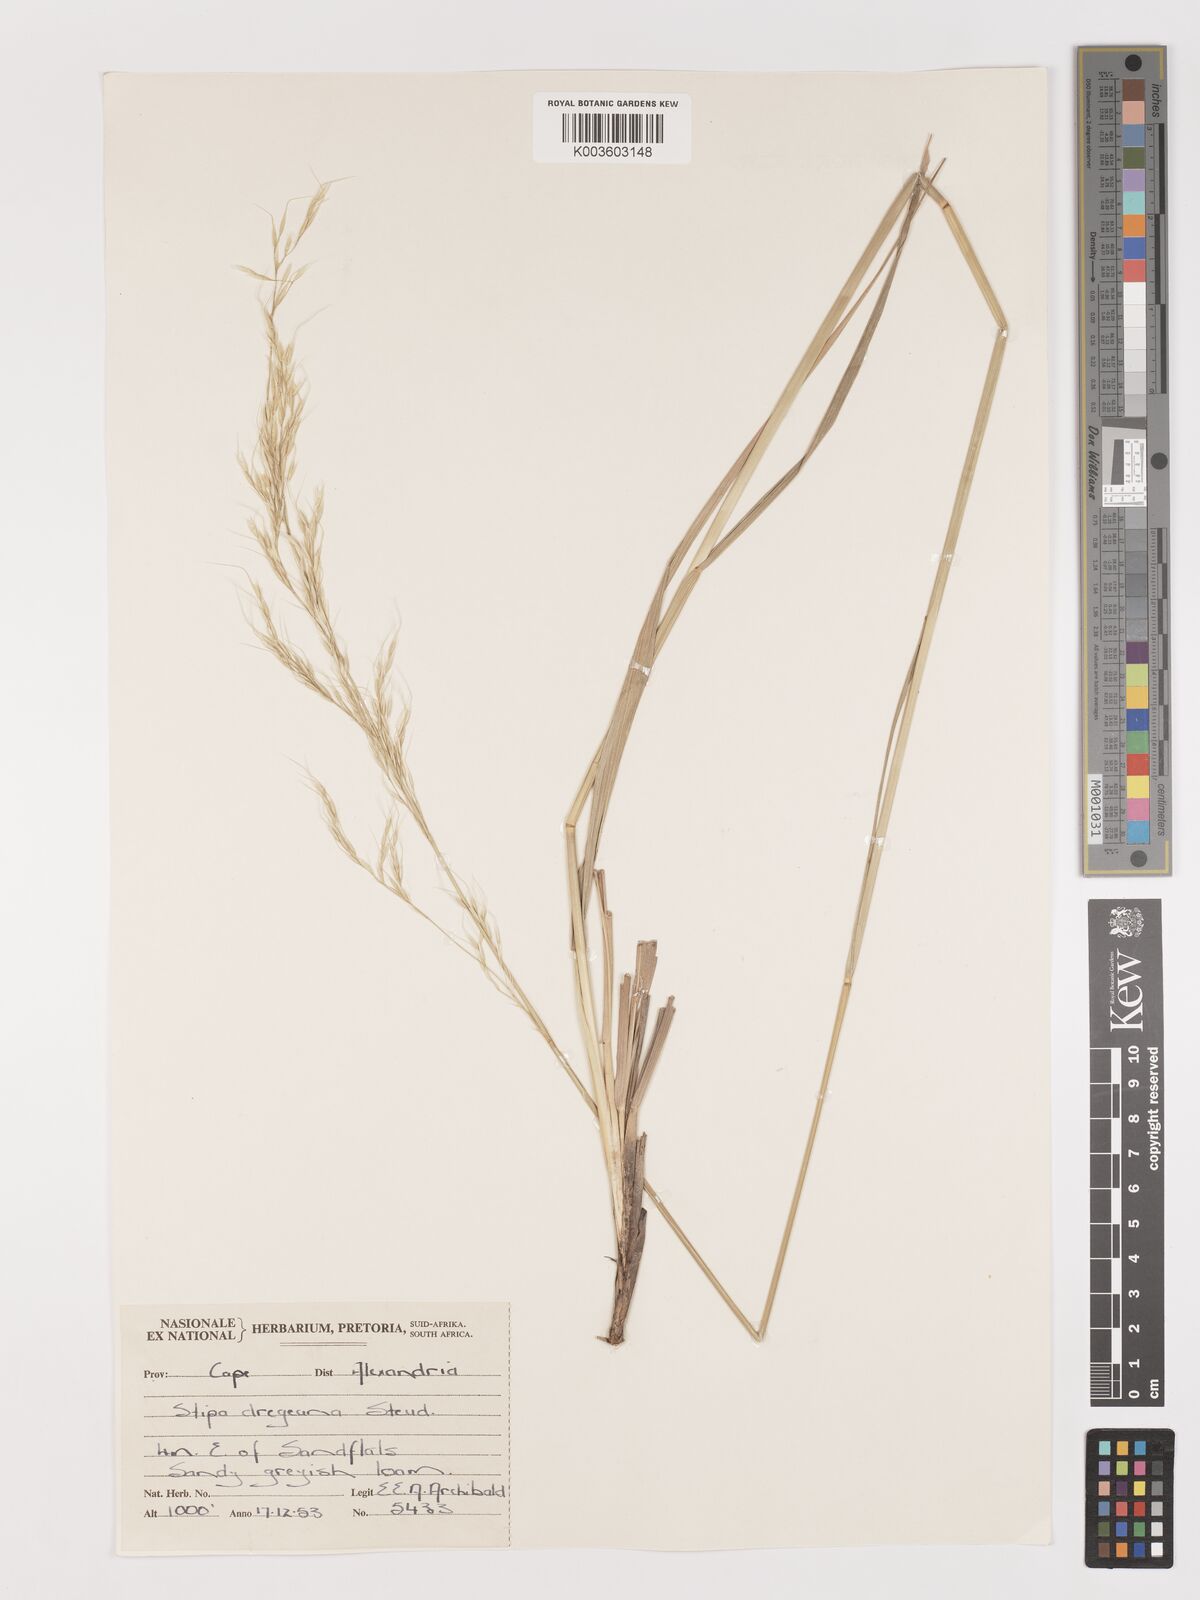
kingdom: Plantae
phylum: Tracheophyta
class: Liliopsida
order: Poales
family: Poaceae
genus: Stipa
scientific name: Stipa dregeana
